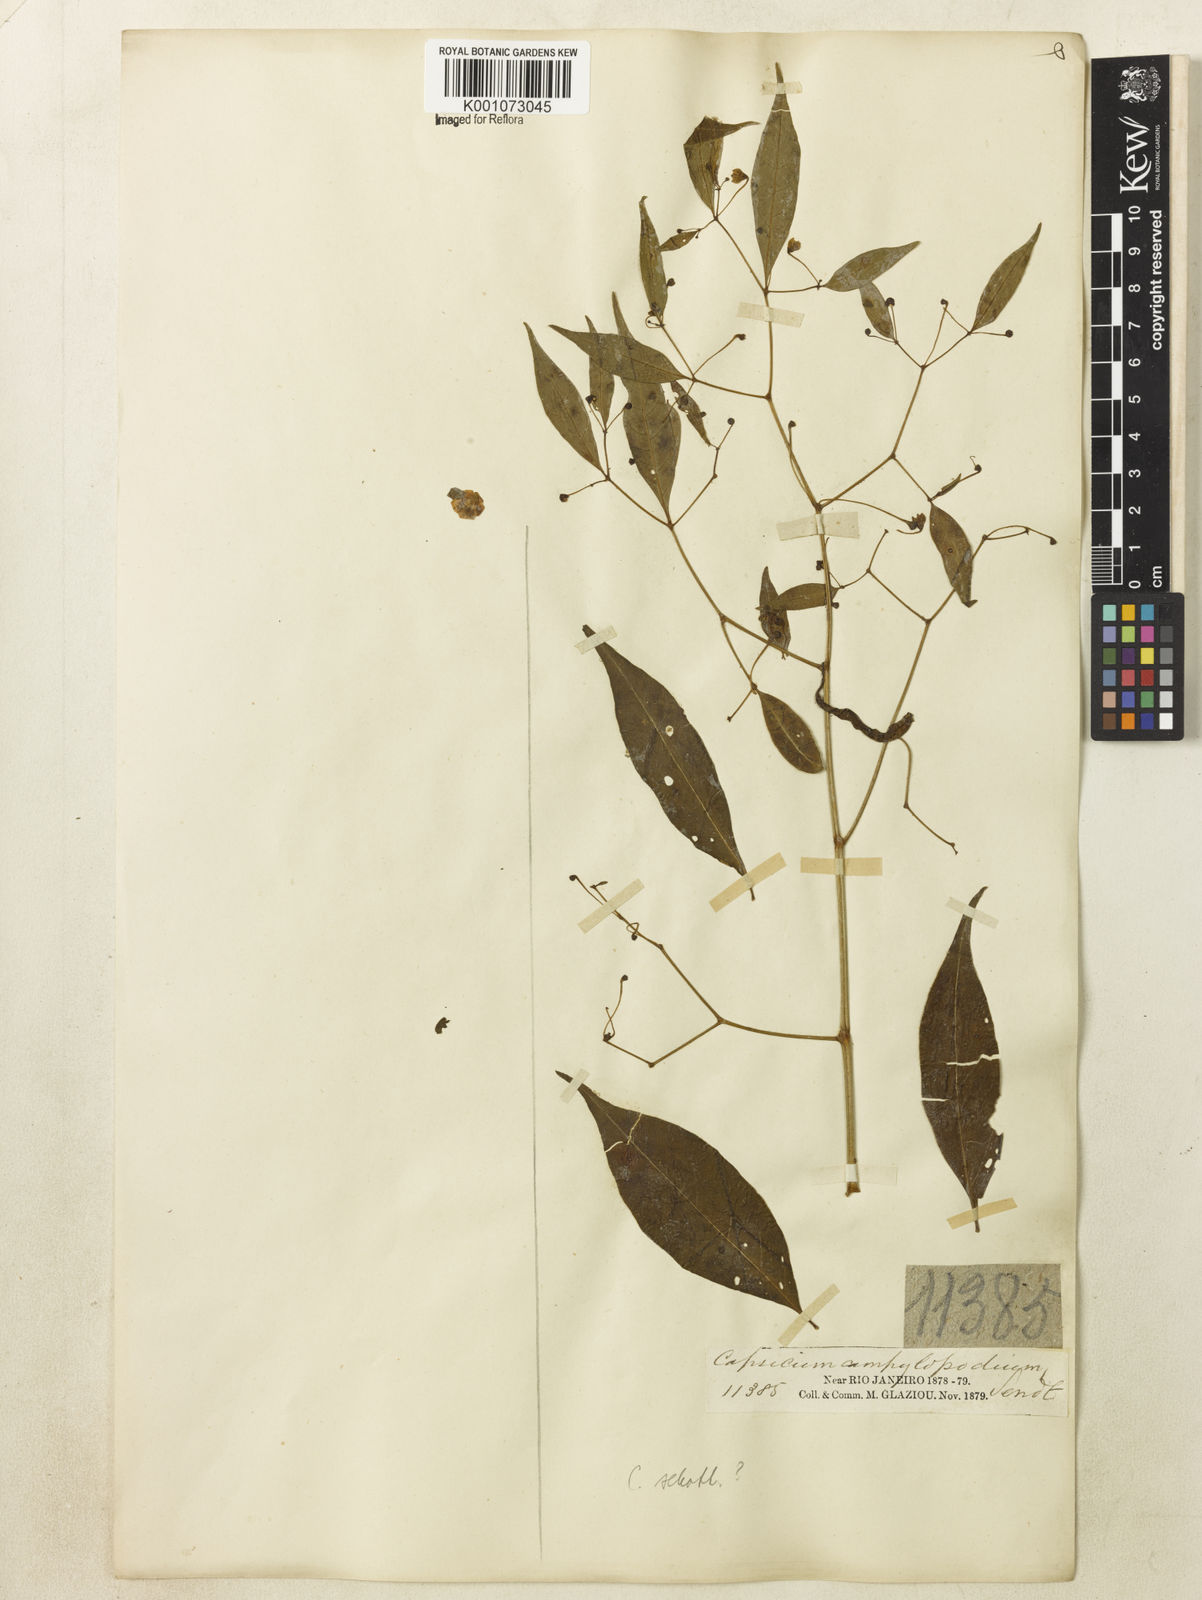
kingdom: Plantae
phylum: Tracheophyta
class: Magnoliopsida
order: Solanales
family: Solanaceae
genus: Capsicum
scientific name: Capsicum
